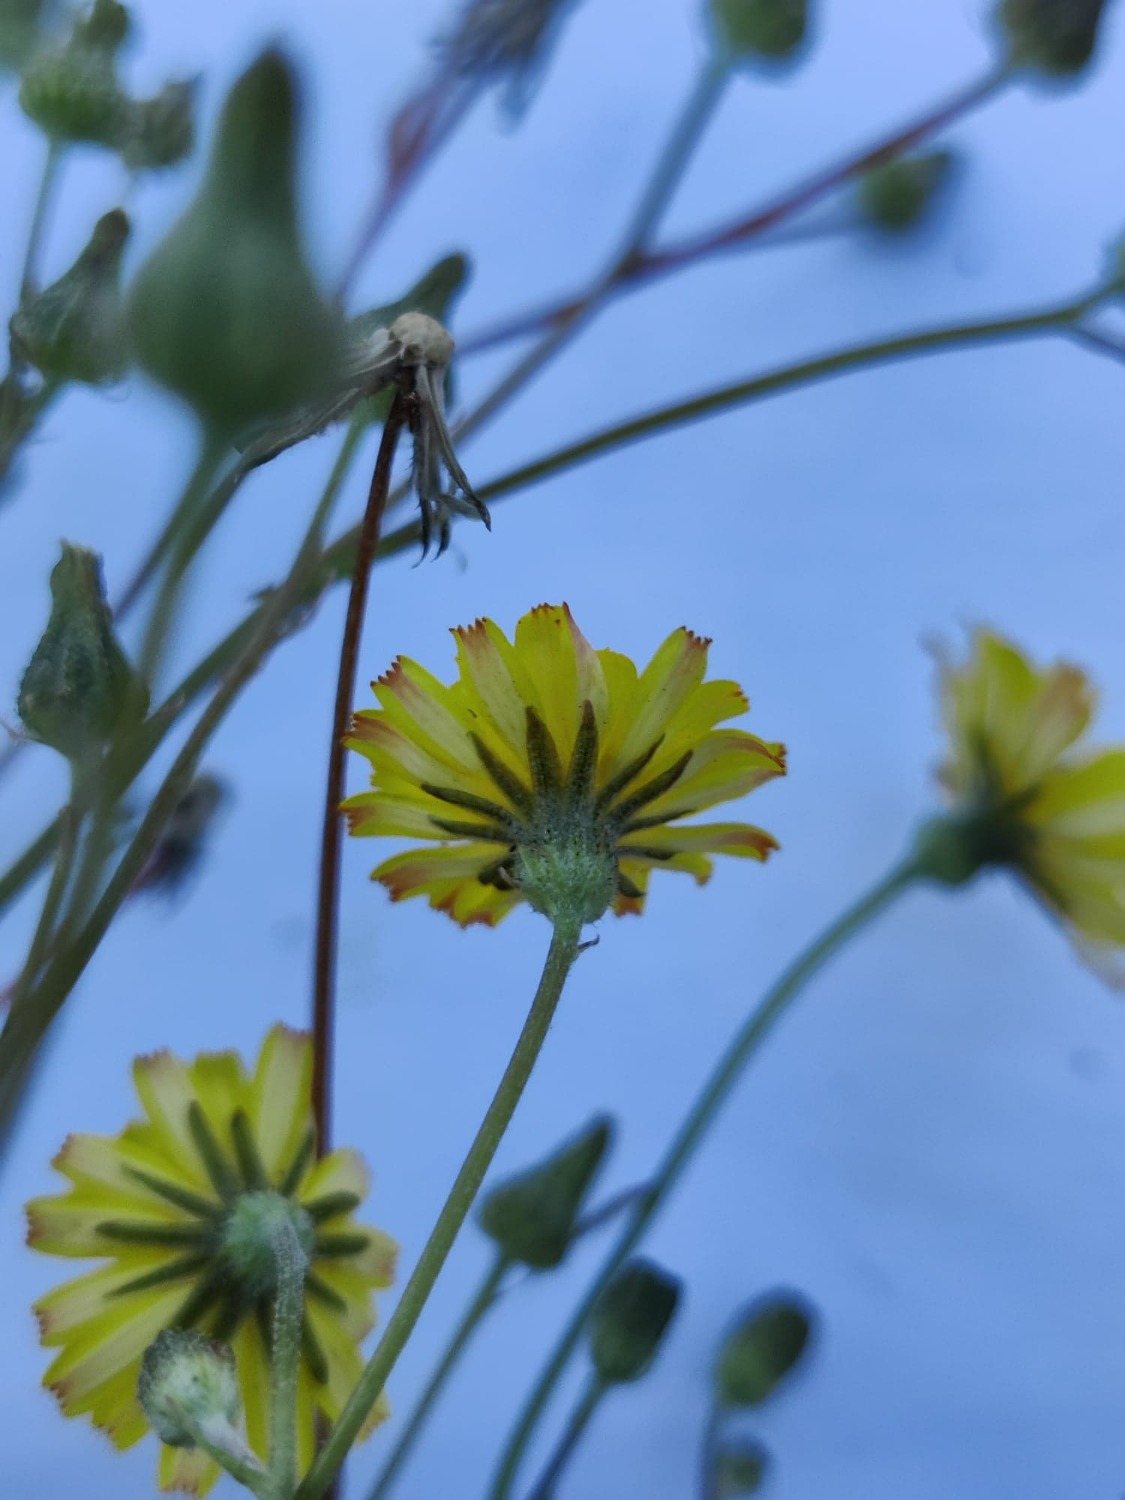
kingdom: Plantae
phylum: Tracheophyta
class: Magnoliopsida
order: Asterales
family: Asteraceae
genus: Scorzoneroides
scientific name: Scorzoneroides autumnalis
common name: Høst-borst
